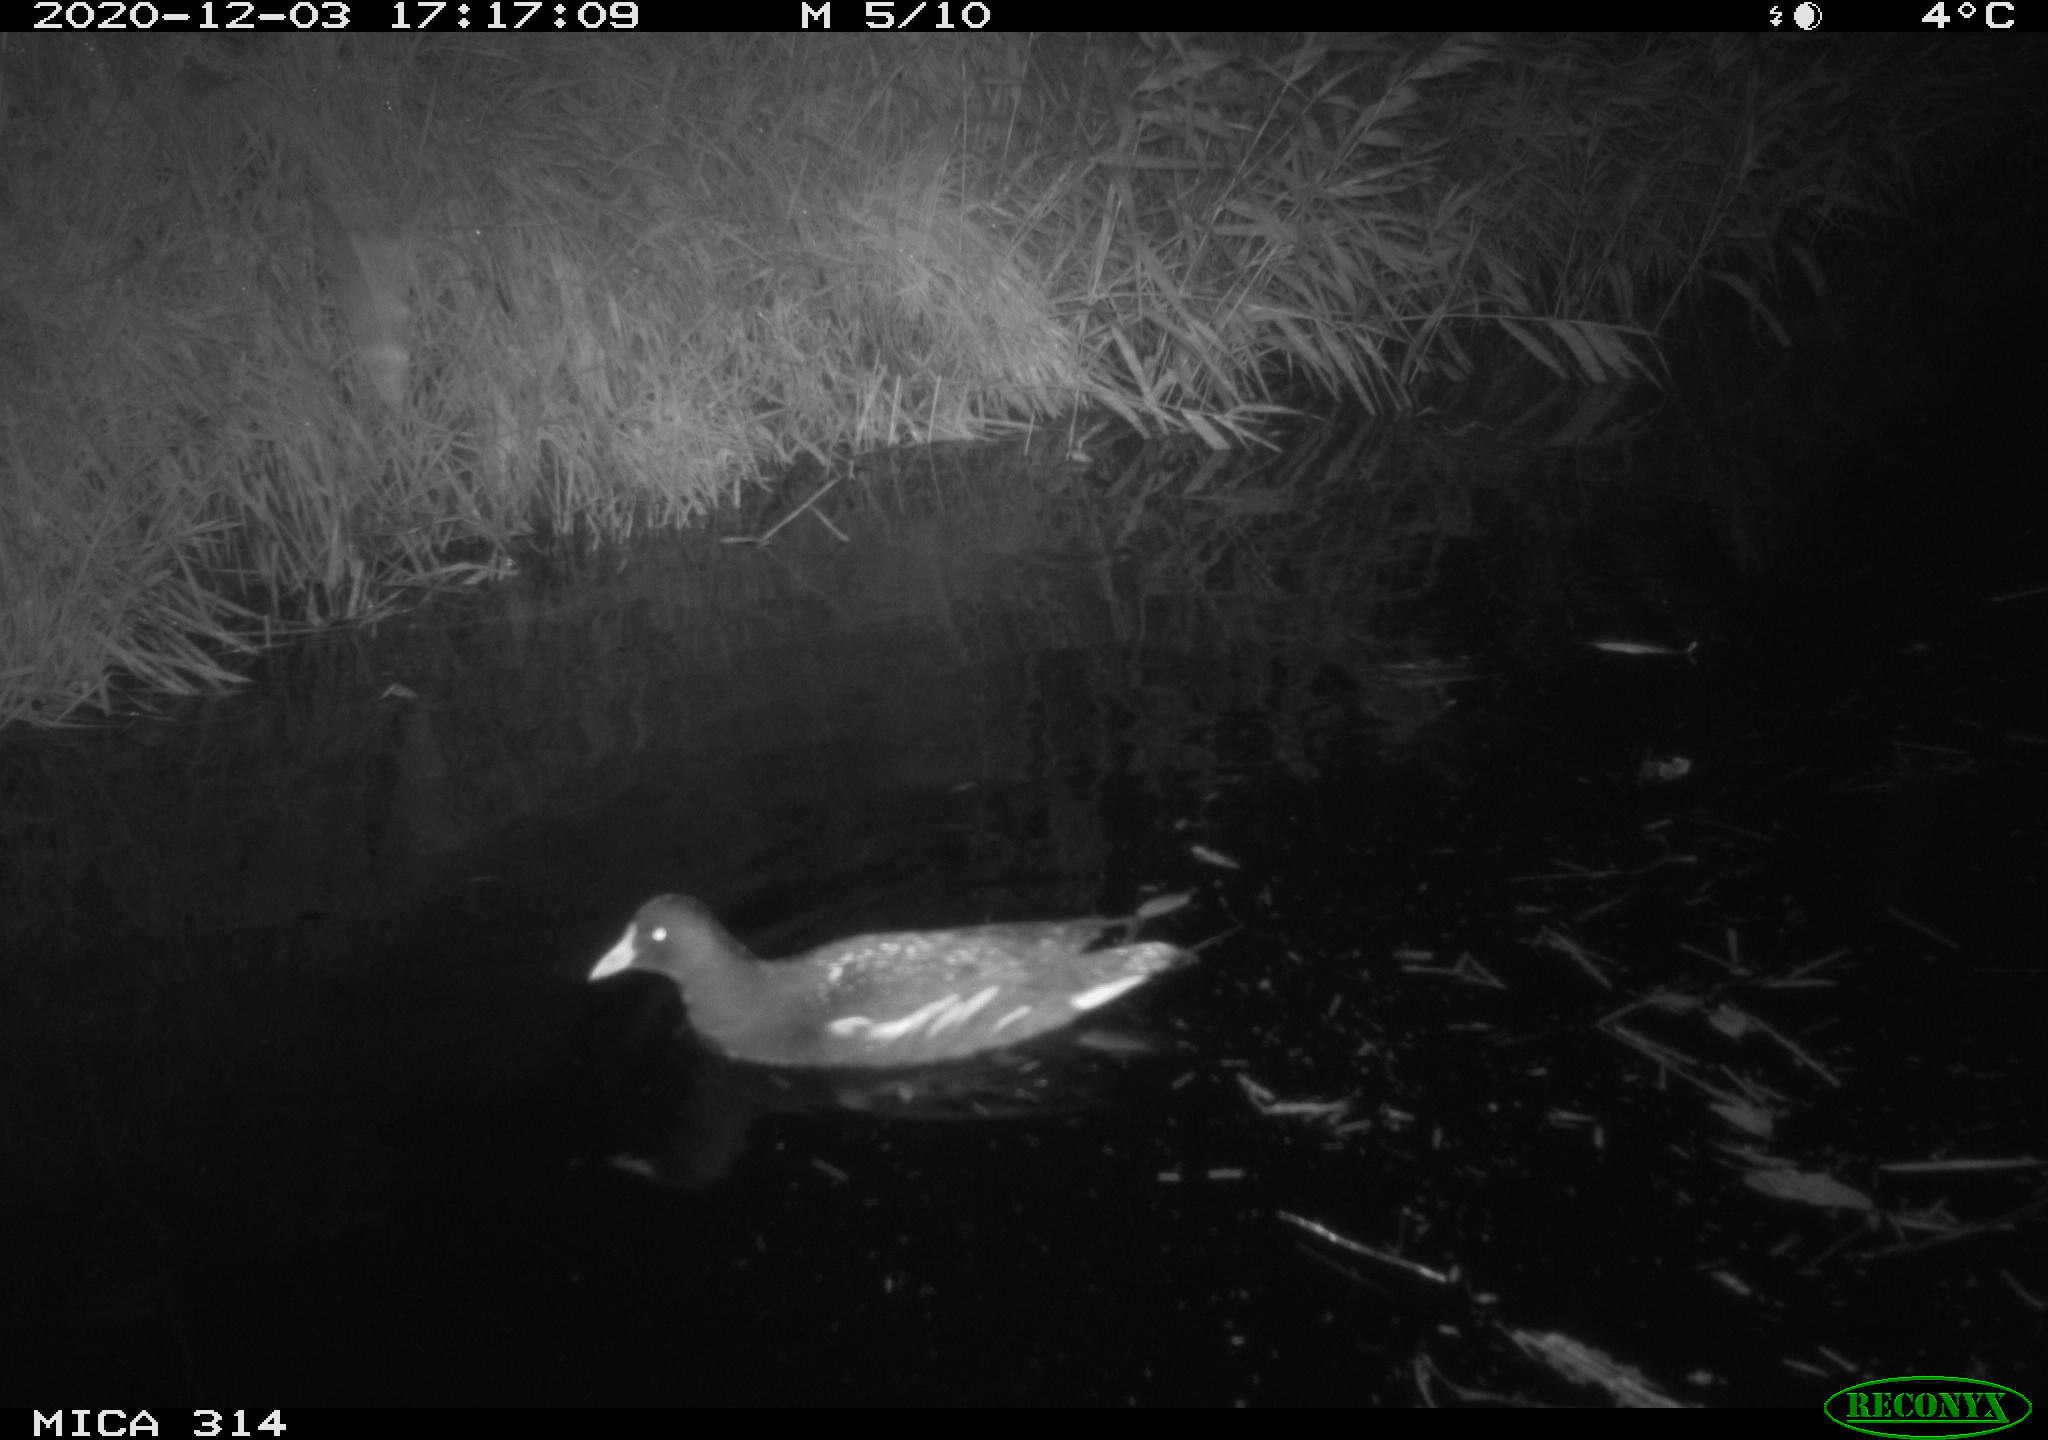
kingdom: Animalia
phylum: Chordata
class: Aves
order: Gruiformes
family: Rallidae
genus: Gallinula
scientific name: Gallinula chloropus
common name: Common moorhen
